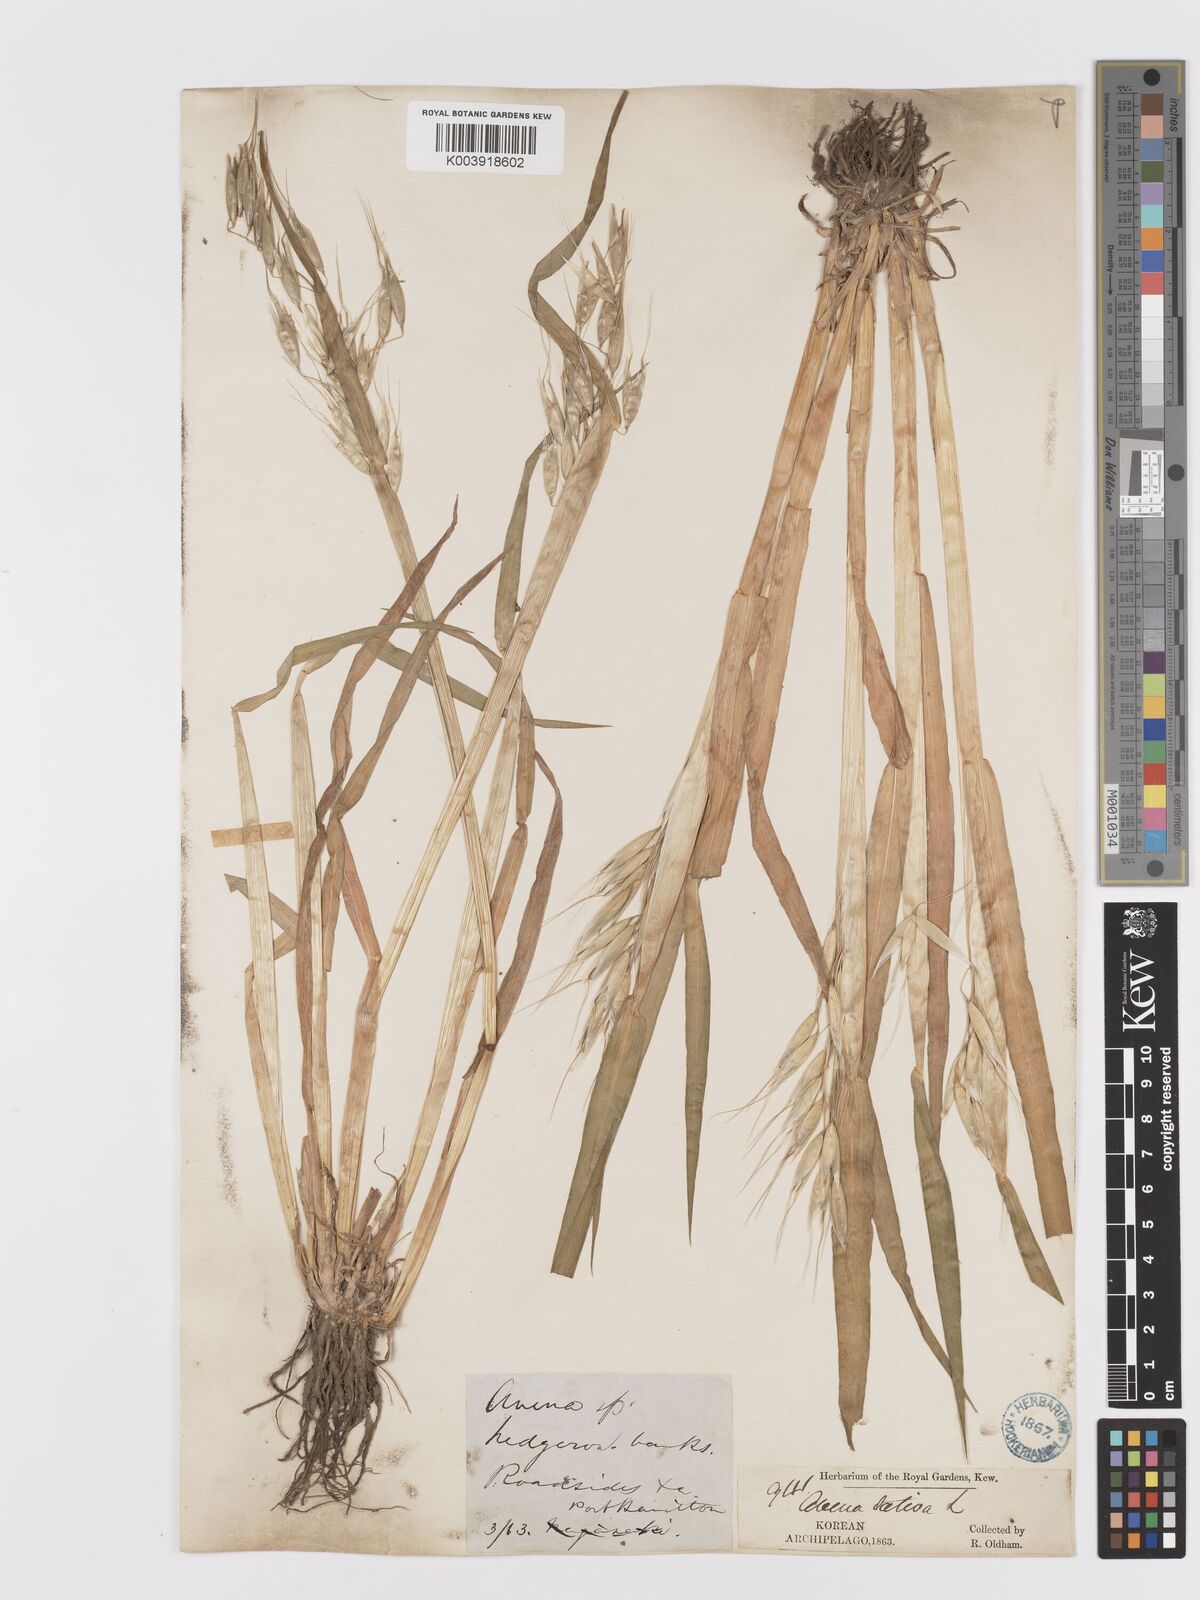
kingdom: Plantae
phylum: Tracheophyta
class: Liliopsida
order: Poales
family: Poaceae
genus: Avena
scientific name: Avena fatua
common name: Wild oat
